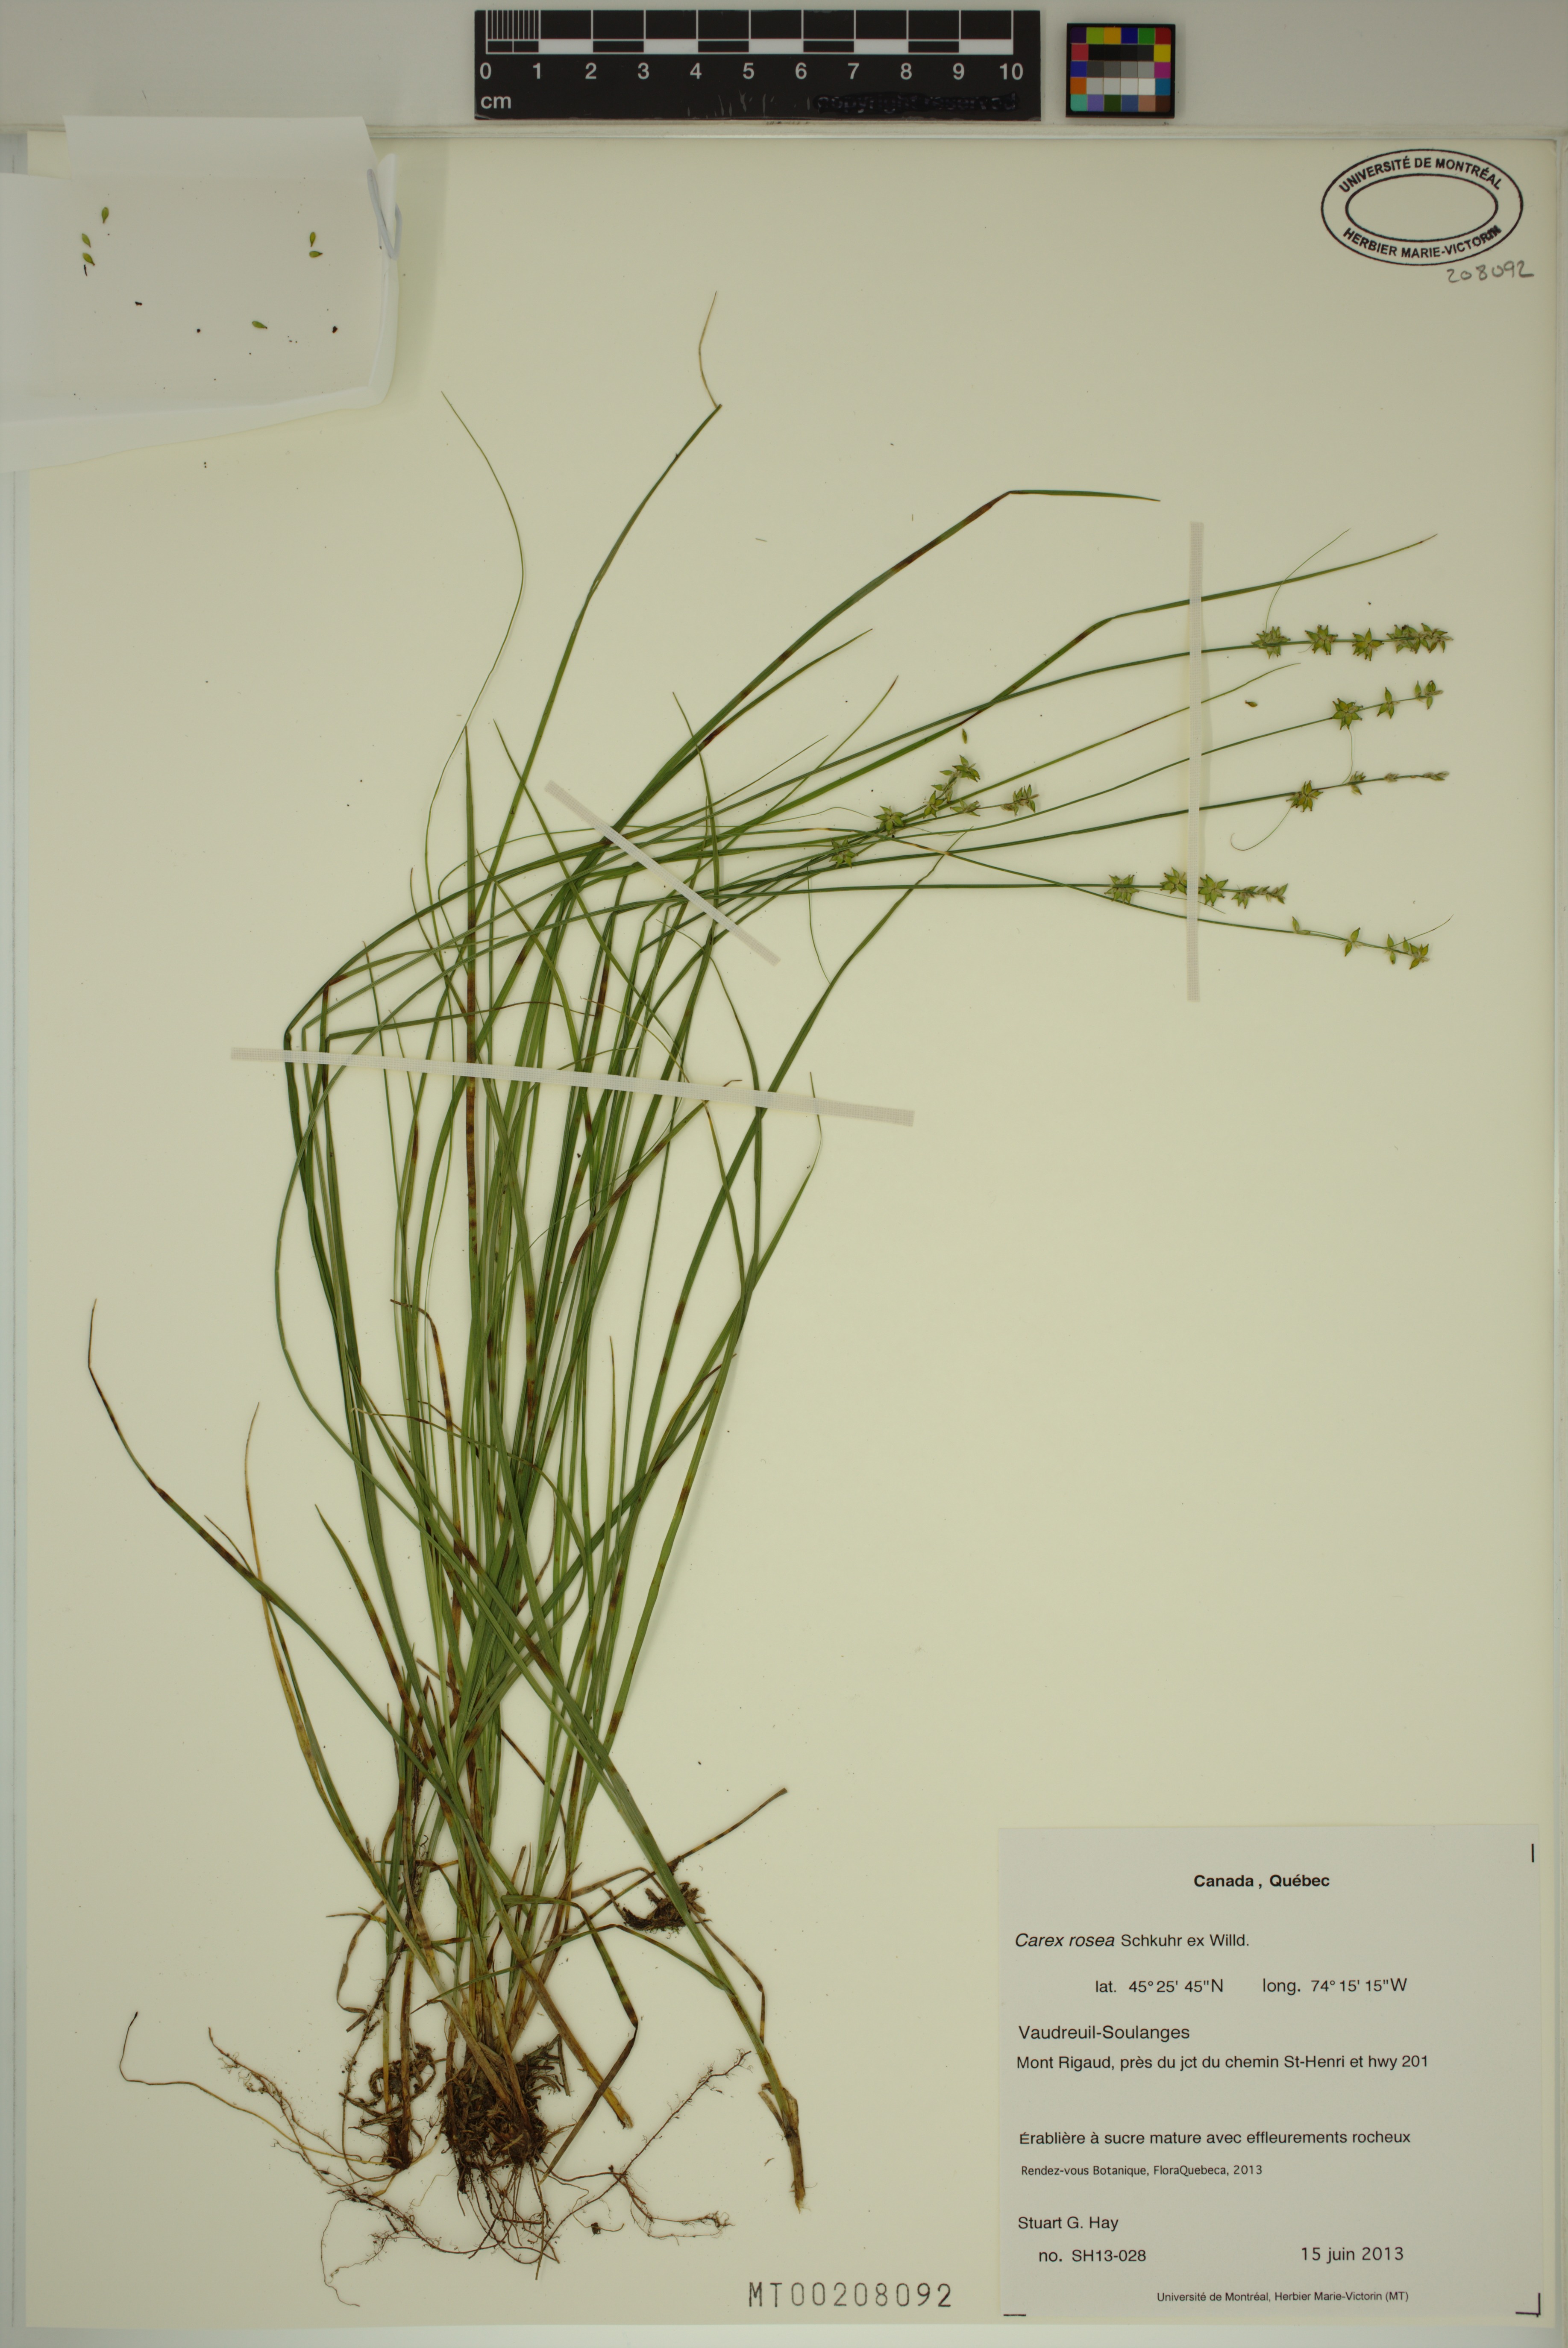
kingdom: Plantae
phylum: Tracheophyta
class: Liliopsida
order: Poales
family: Cyperaceae
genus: Carex
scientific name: Carex rosea
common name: Curly-styled wood sedge
